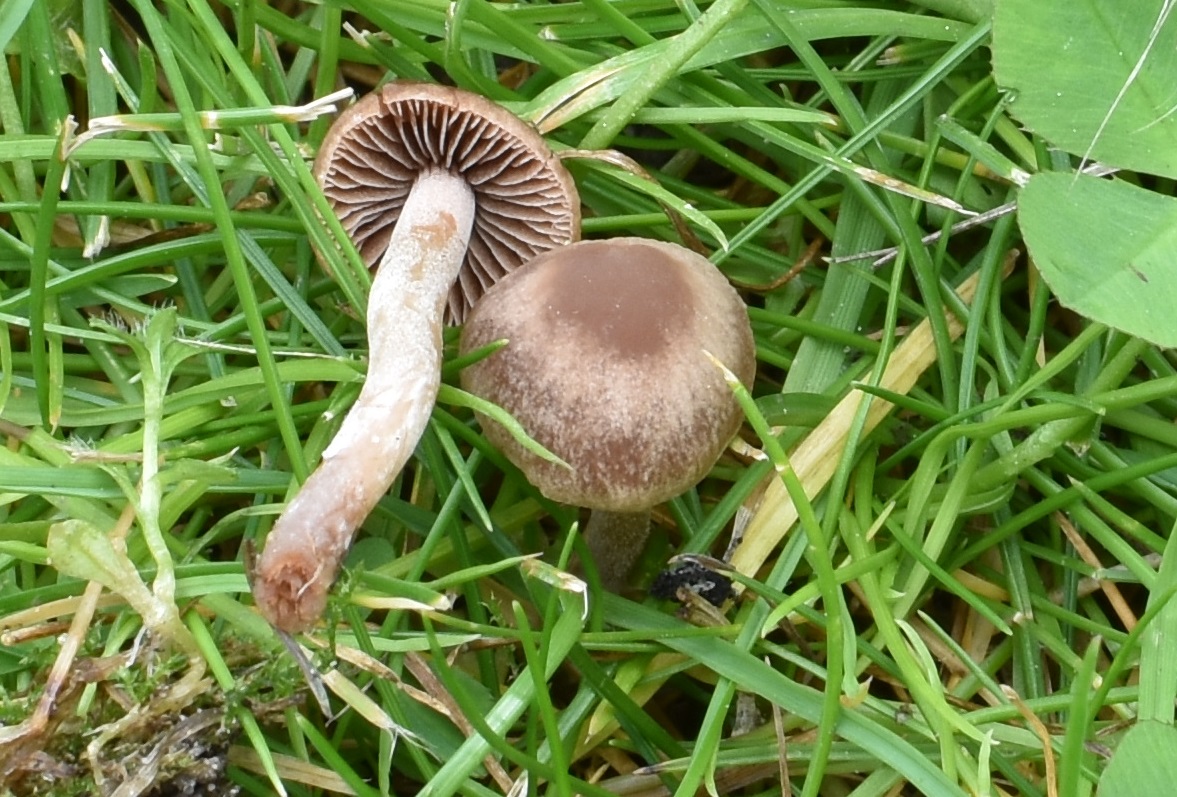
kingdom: Fungi
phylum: Basidiomycota
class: Agaricomycetes
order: Agaricales
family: Bolbitiaceae
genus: Panaeolina
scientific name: Panaeolina foenisecii
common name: høslætsvamp
